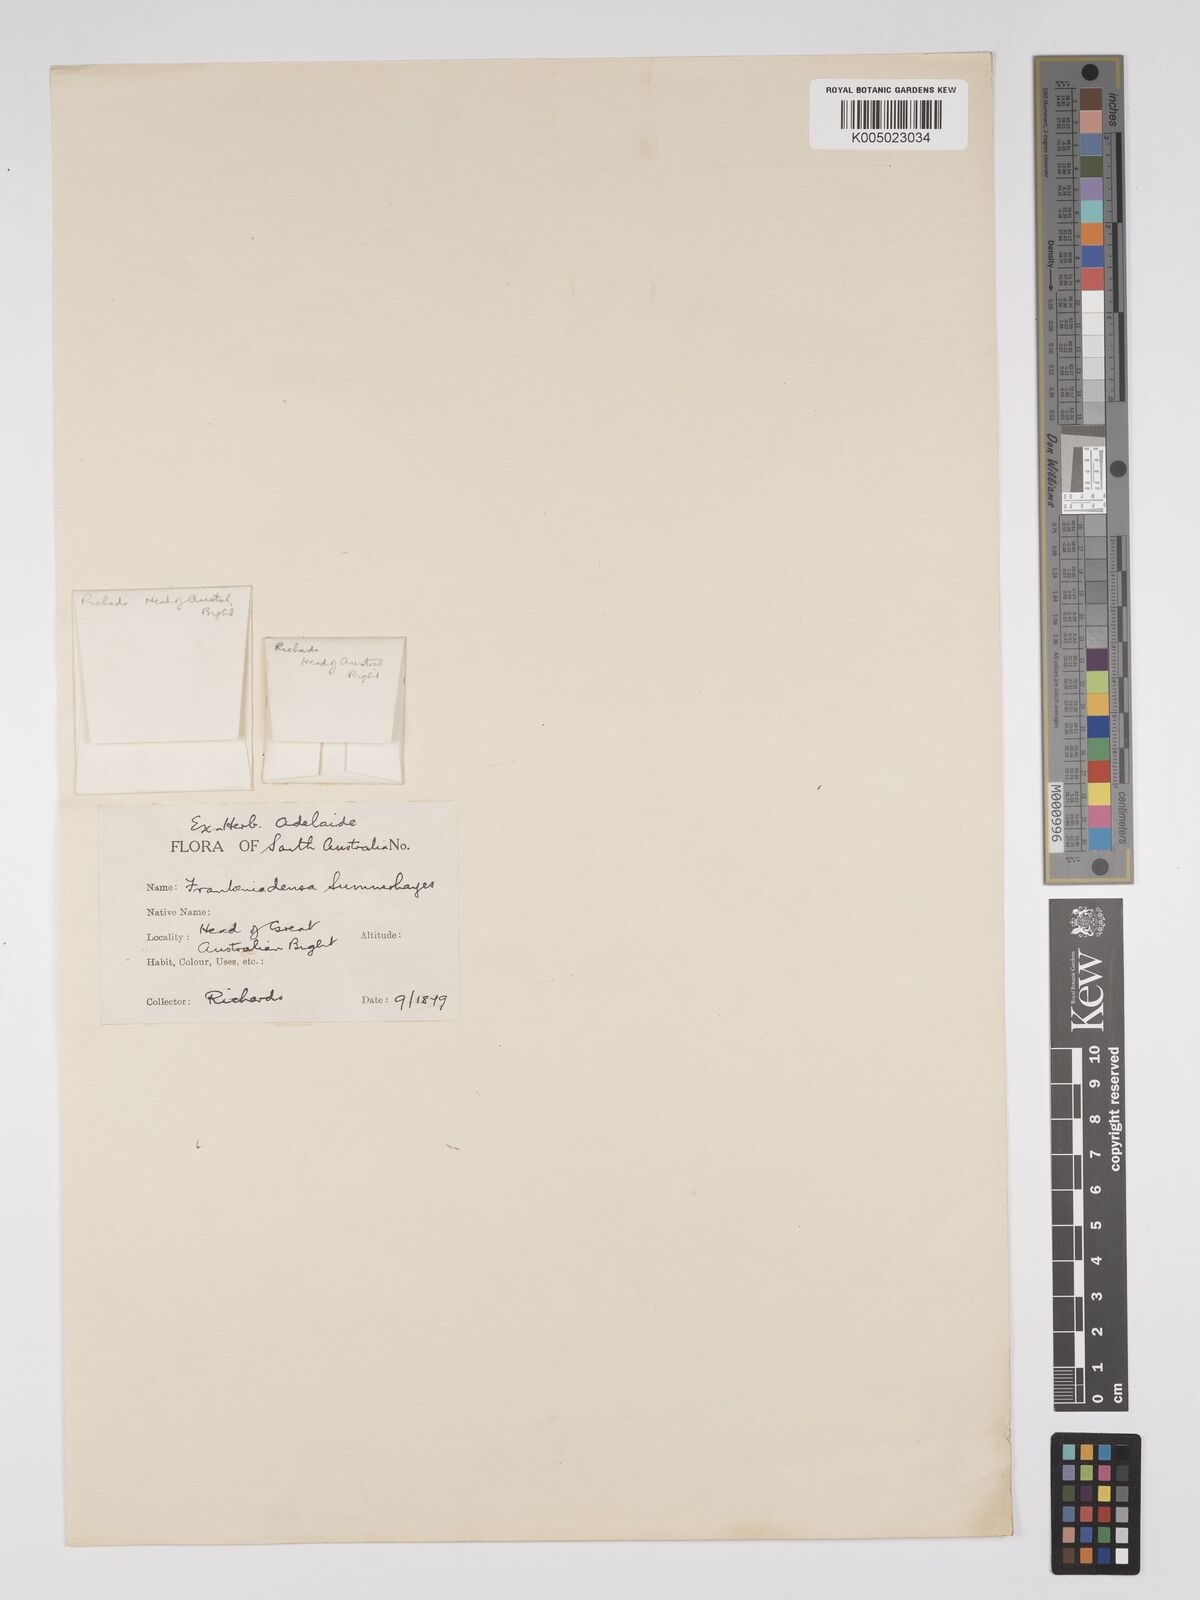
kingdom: Plantae
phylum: Tracheophyta
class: Magnoliopsida
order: Caryophyllales
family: Frankeniaceae
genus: Frankenia
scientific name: Frankenia
